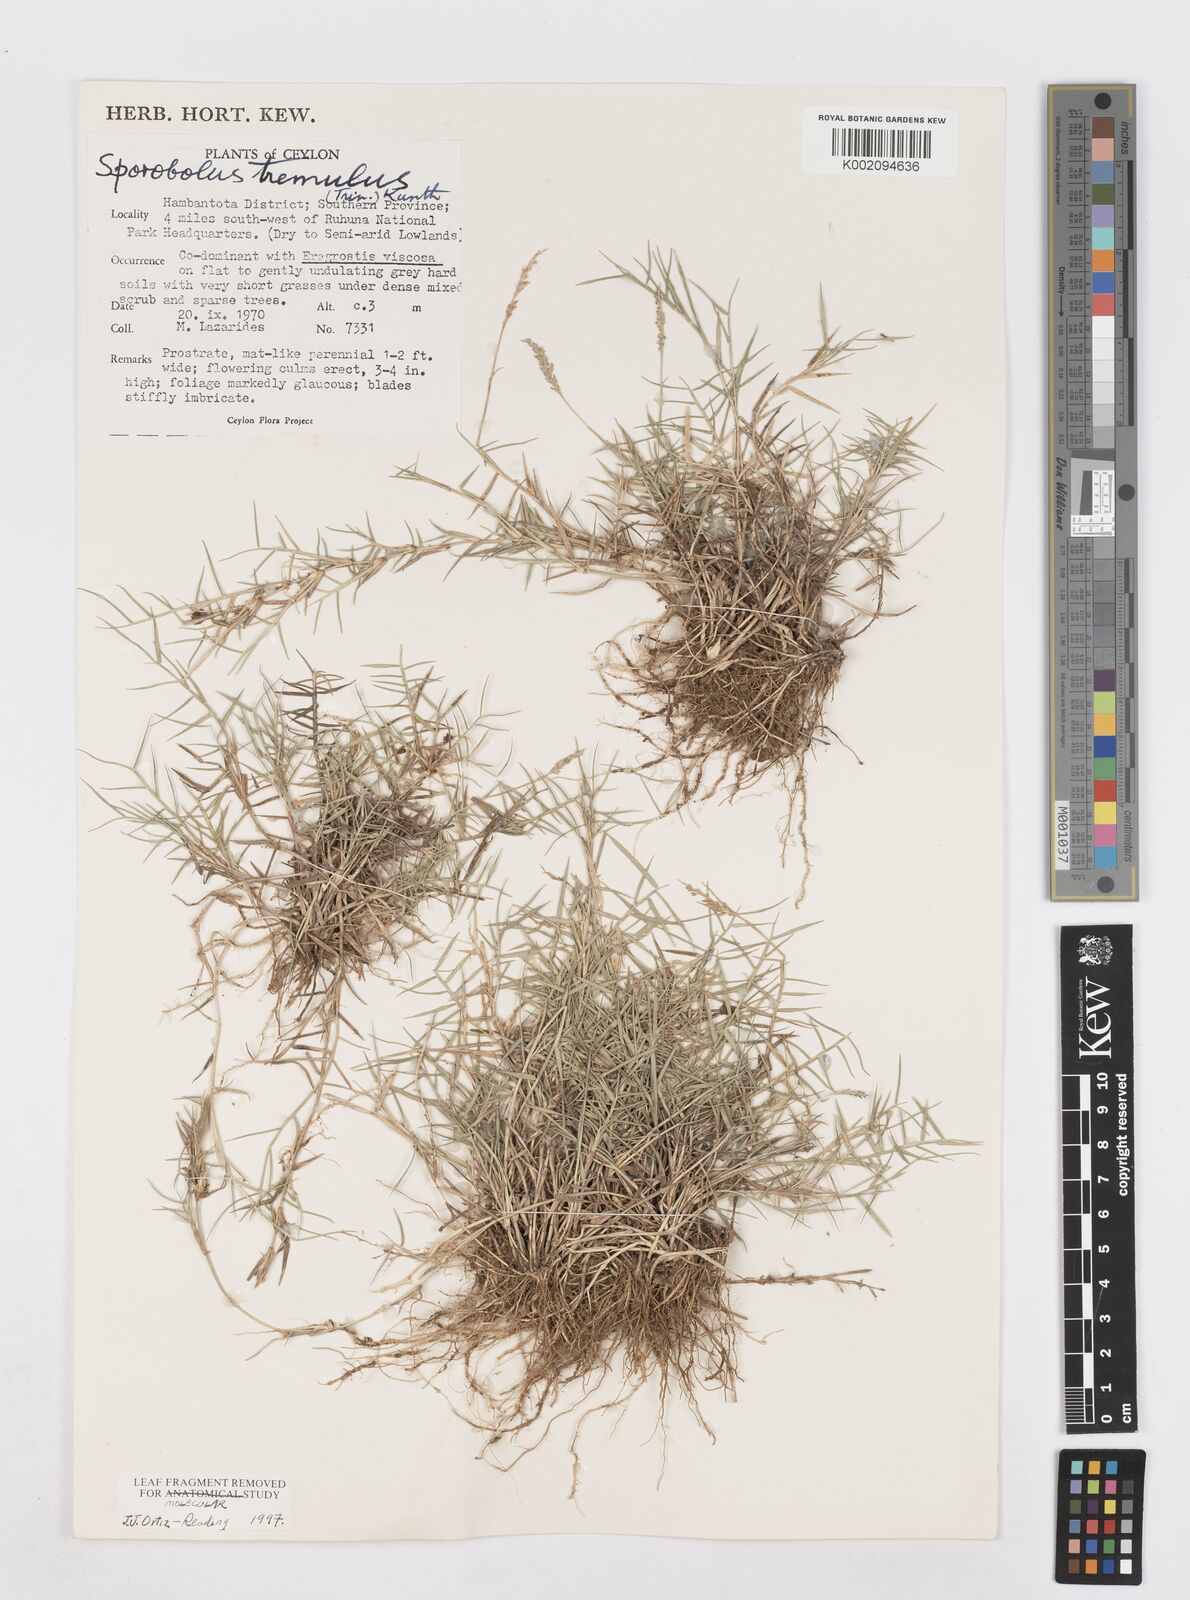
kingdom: Plantae
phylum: Tracheophyta
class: Liliopsida
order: Poales
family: Poaceae
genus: Sporobolus
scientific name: Sporobolus virginicus
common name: Beach dropseed
